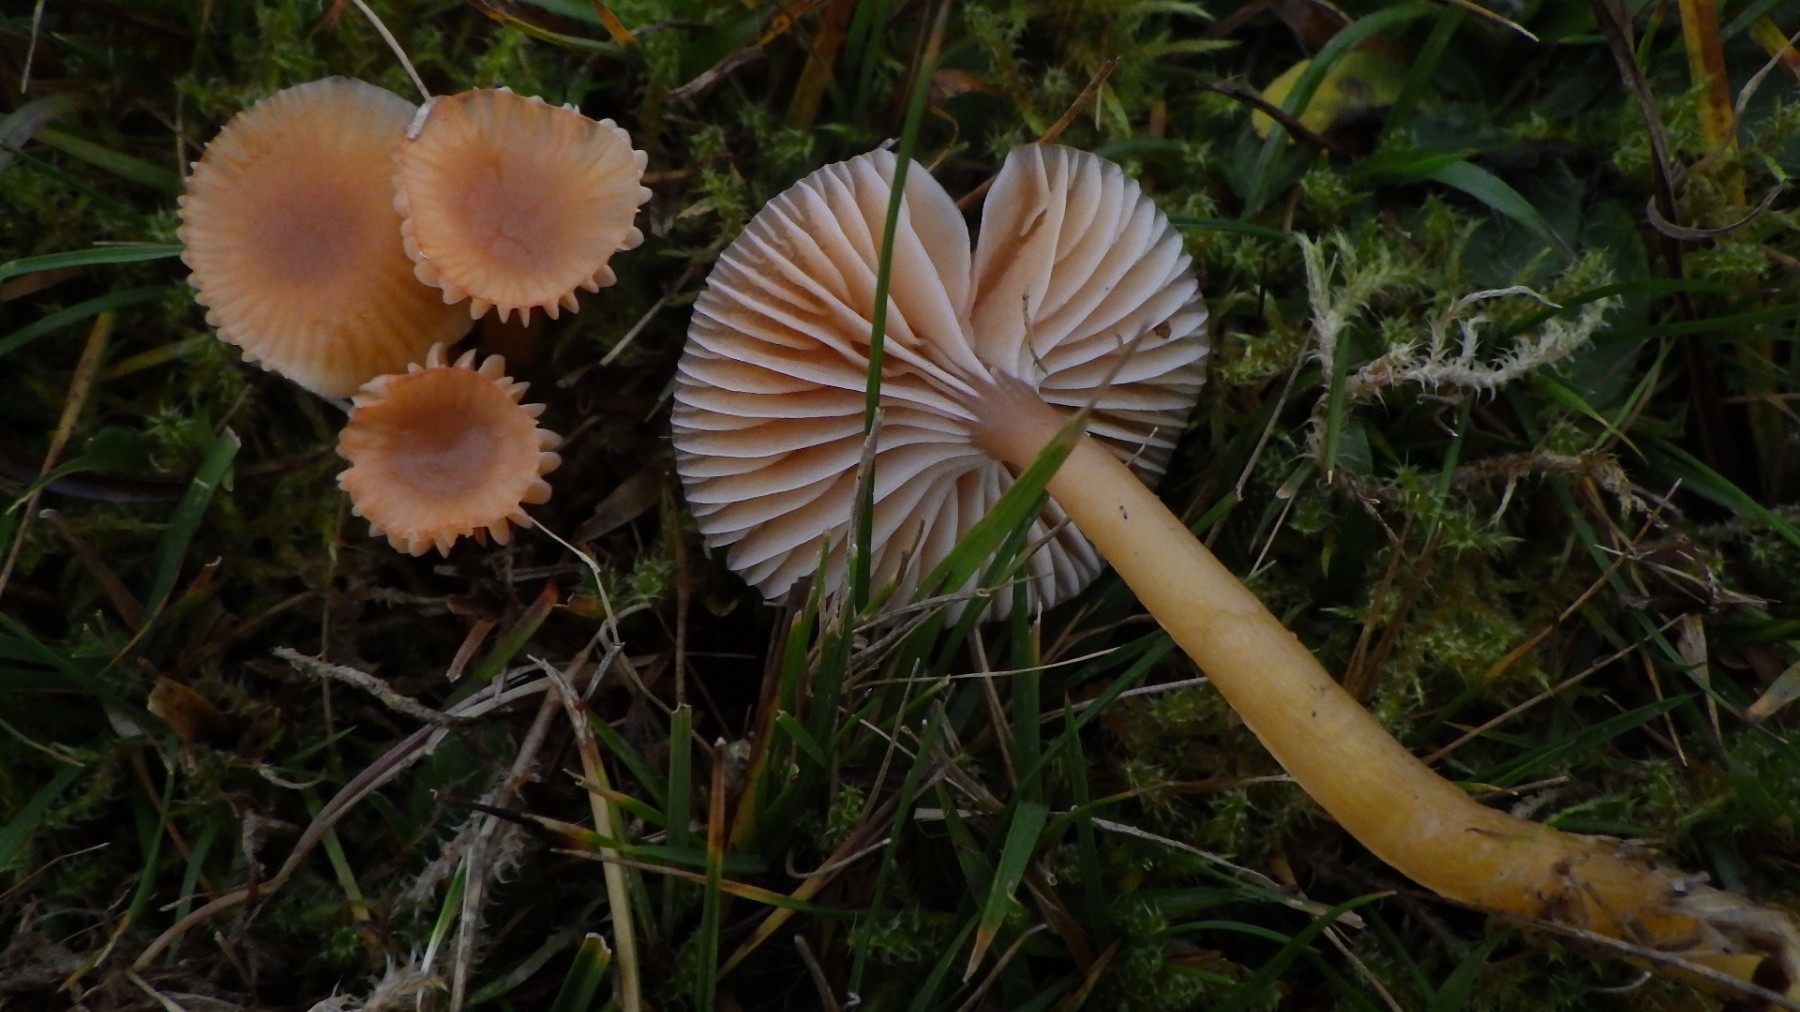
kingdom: Fungi
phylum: Basidiomycota
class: Agaricomycetes
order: Agaricales
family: Hygrophoraceae
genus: Gliophorus
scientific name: Gliophorus laetus
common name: brusk-vokshat
